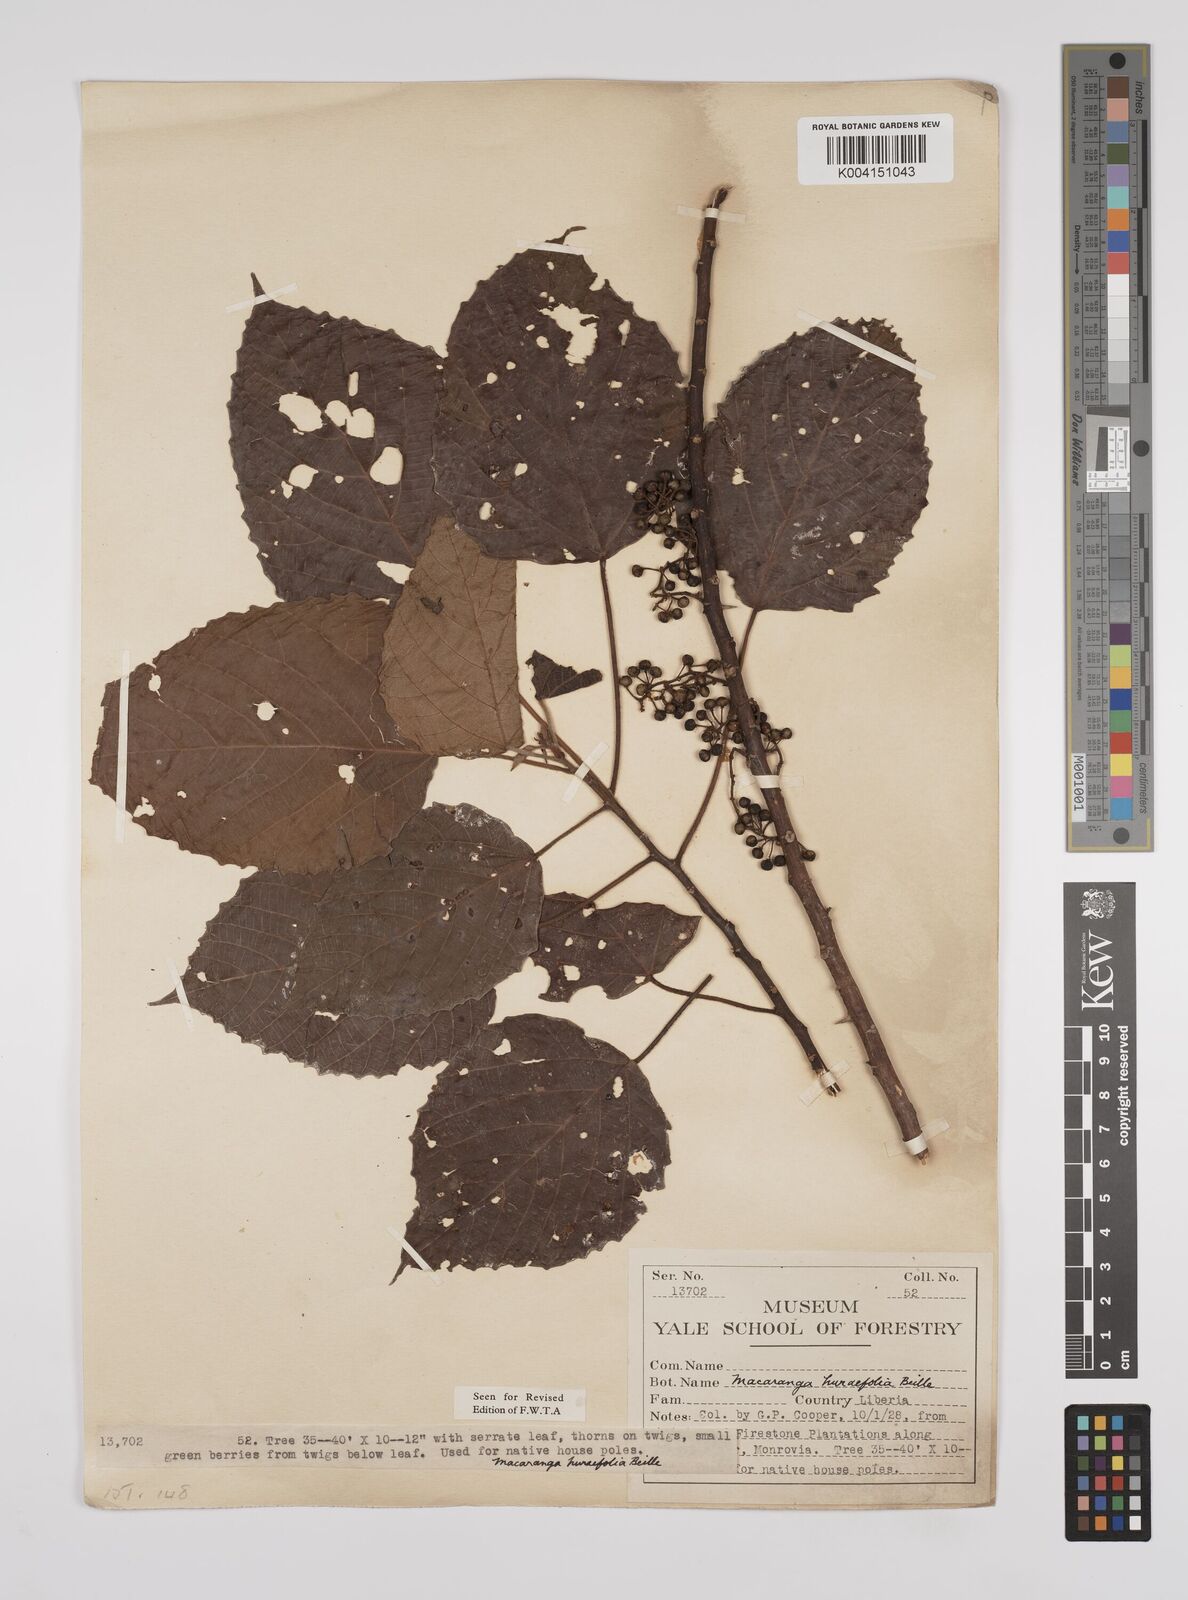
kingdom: Plantae
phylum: Tracheophyta
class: Magnoliopsida
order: Malpighiales
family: Euphorbiaceae
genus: Macaranga
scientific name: Macaranga hurifolia
